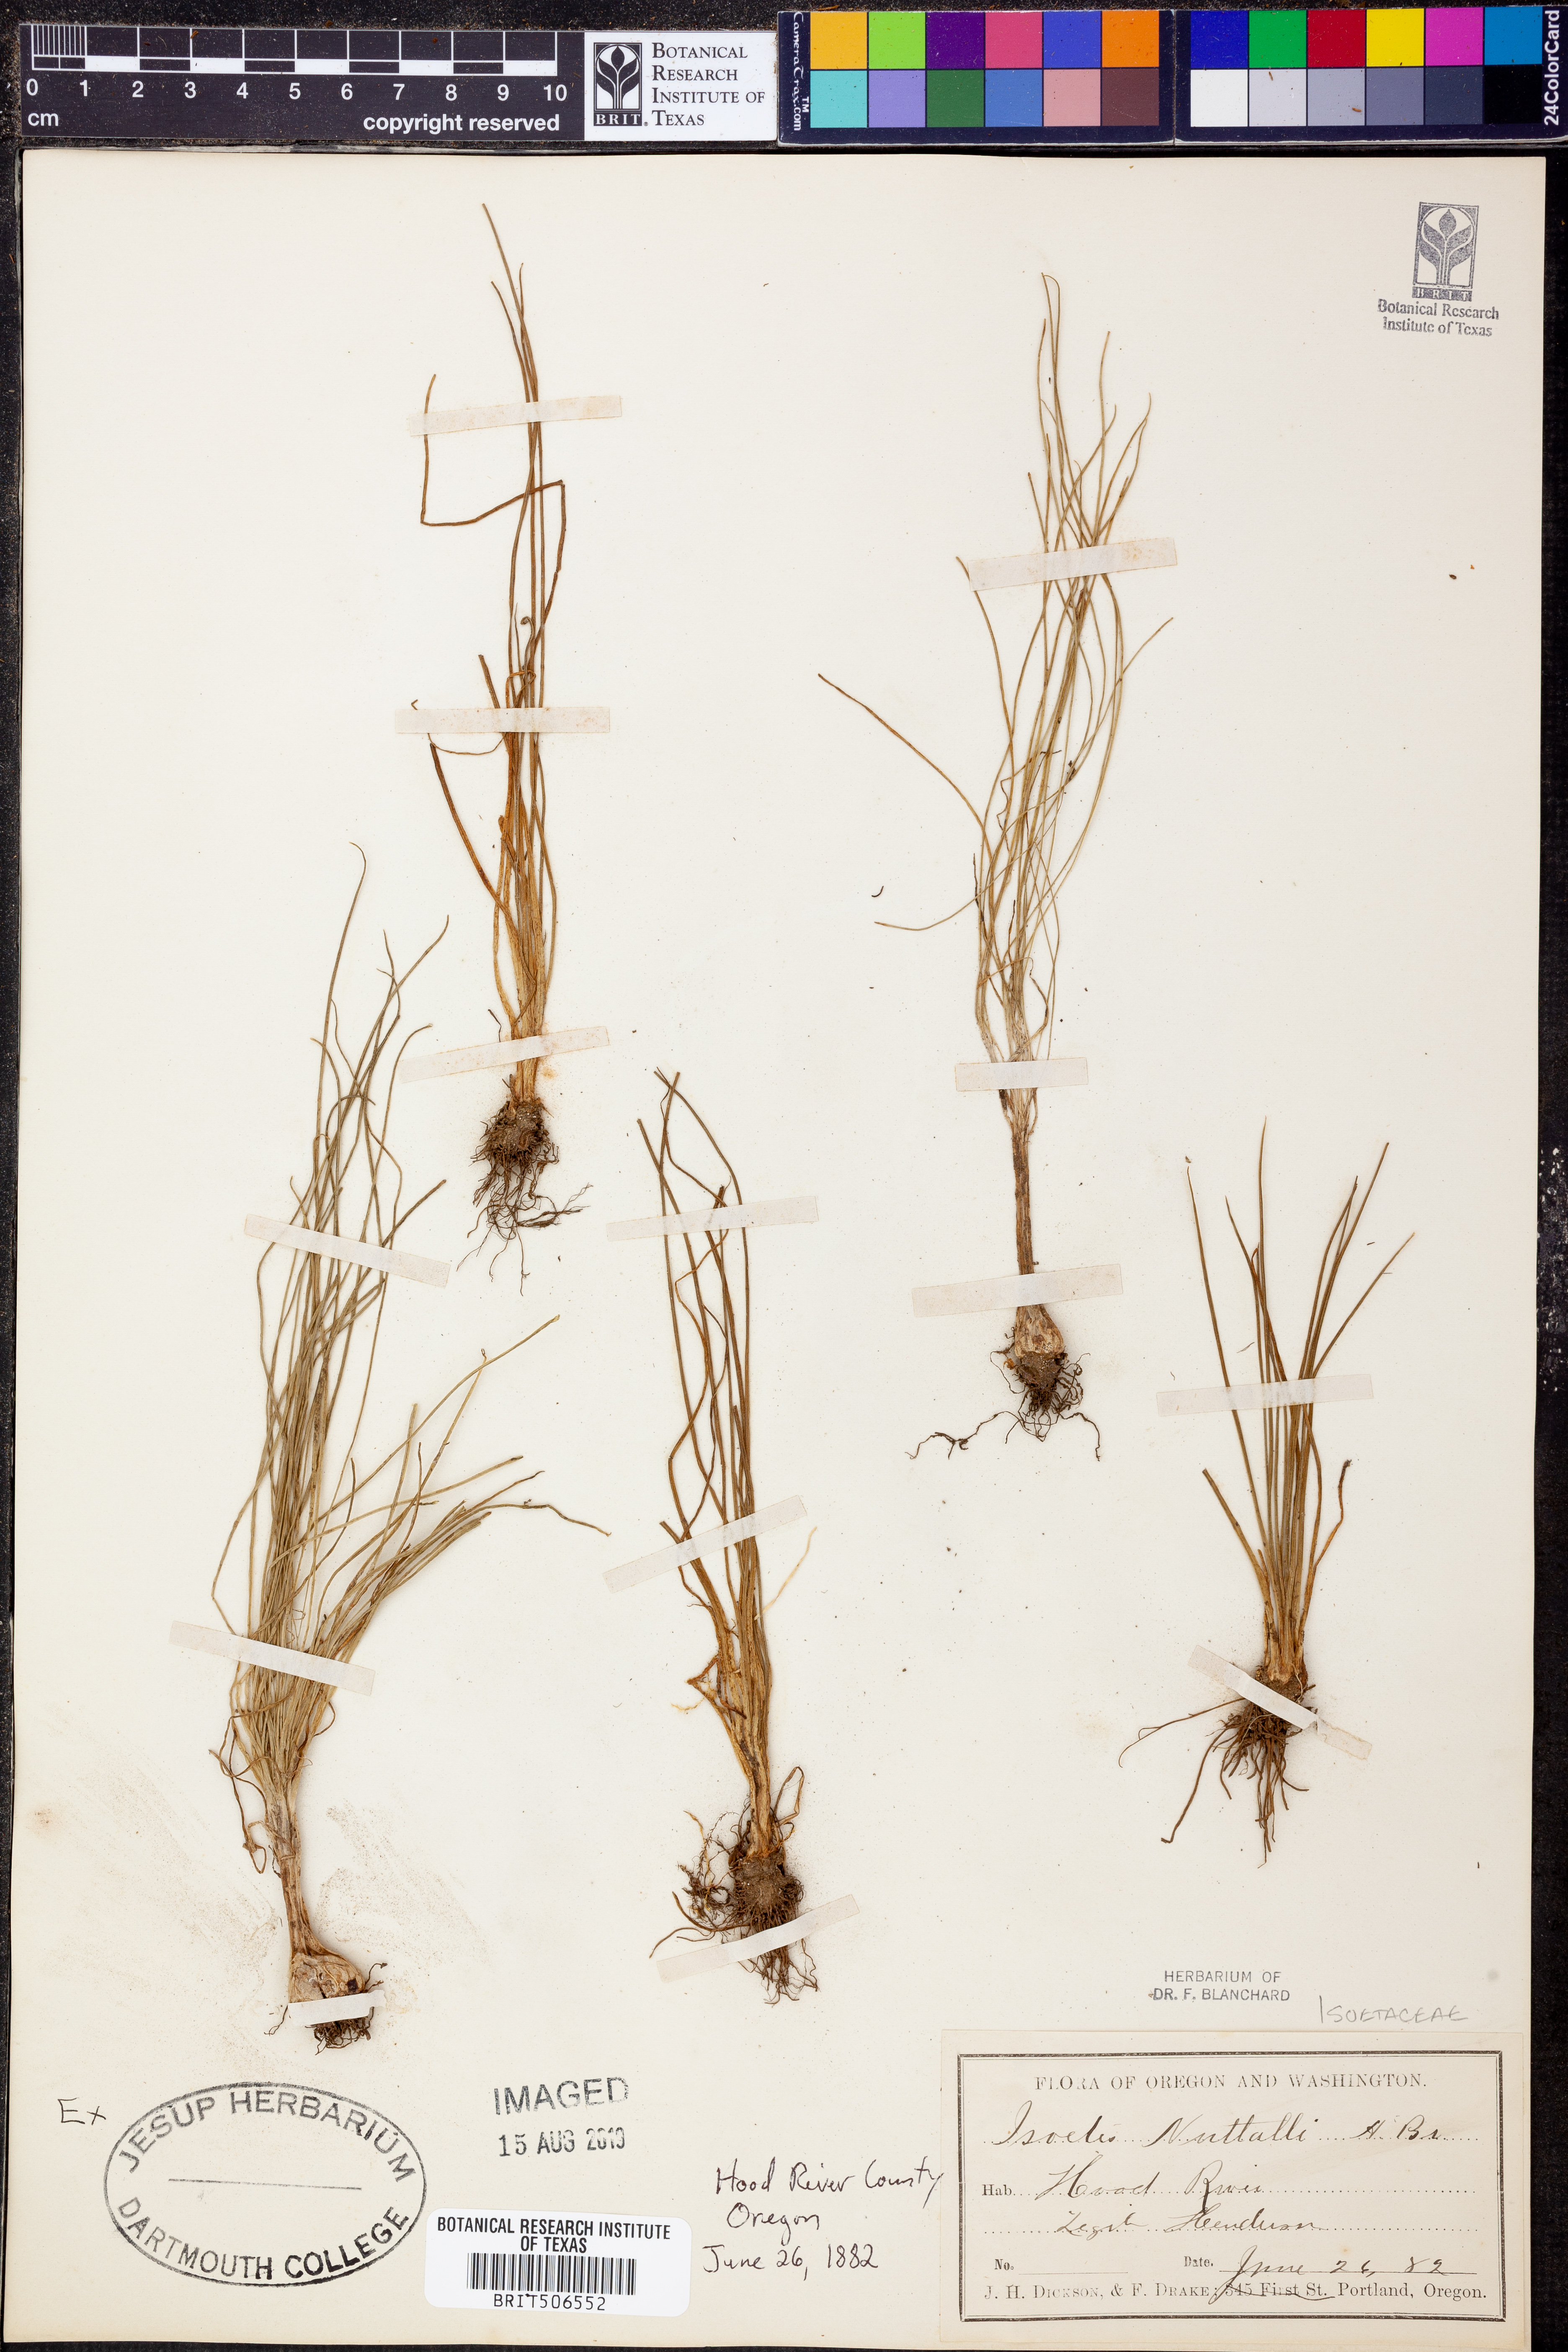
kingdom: Plantae
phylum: Tracheophyta
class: Lycopodiopsida
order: Isoetales
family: Isoetaceae
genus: Isoetes
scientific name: Isoetes nuttallii
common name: Nuttall's quillwort
